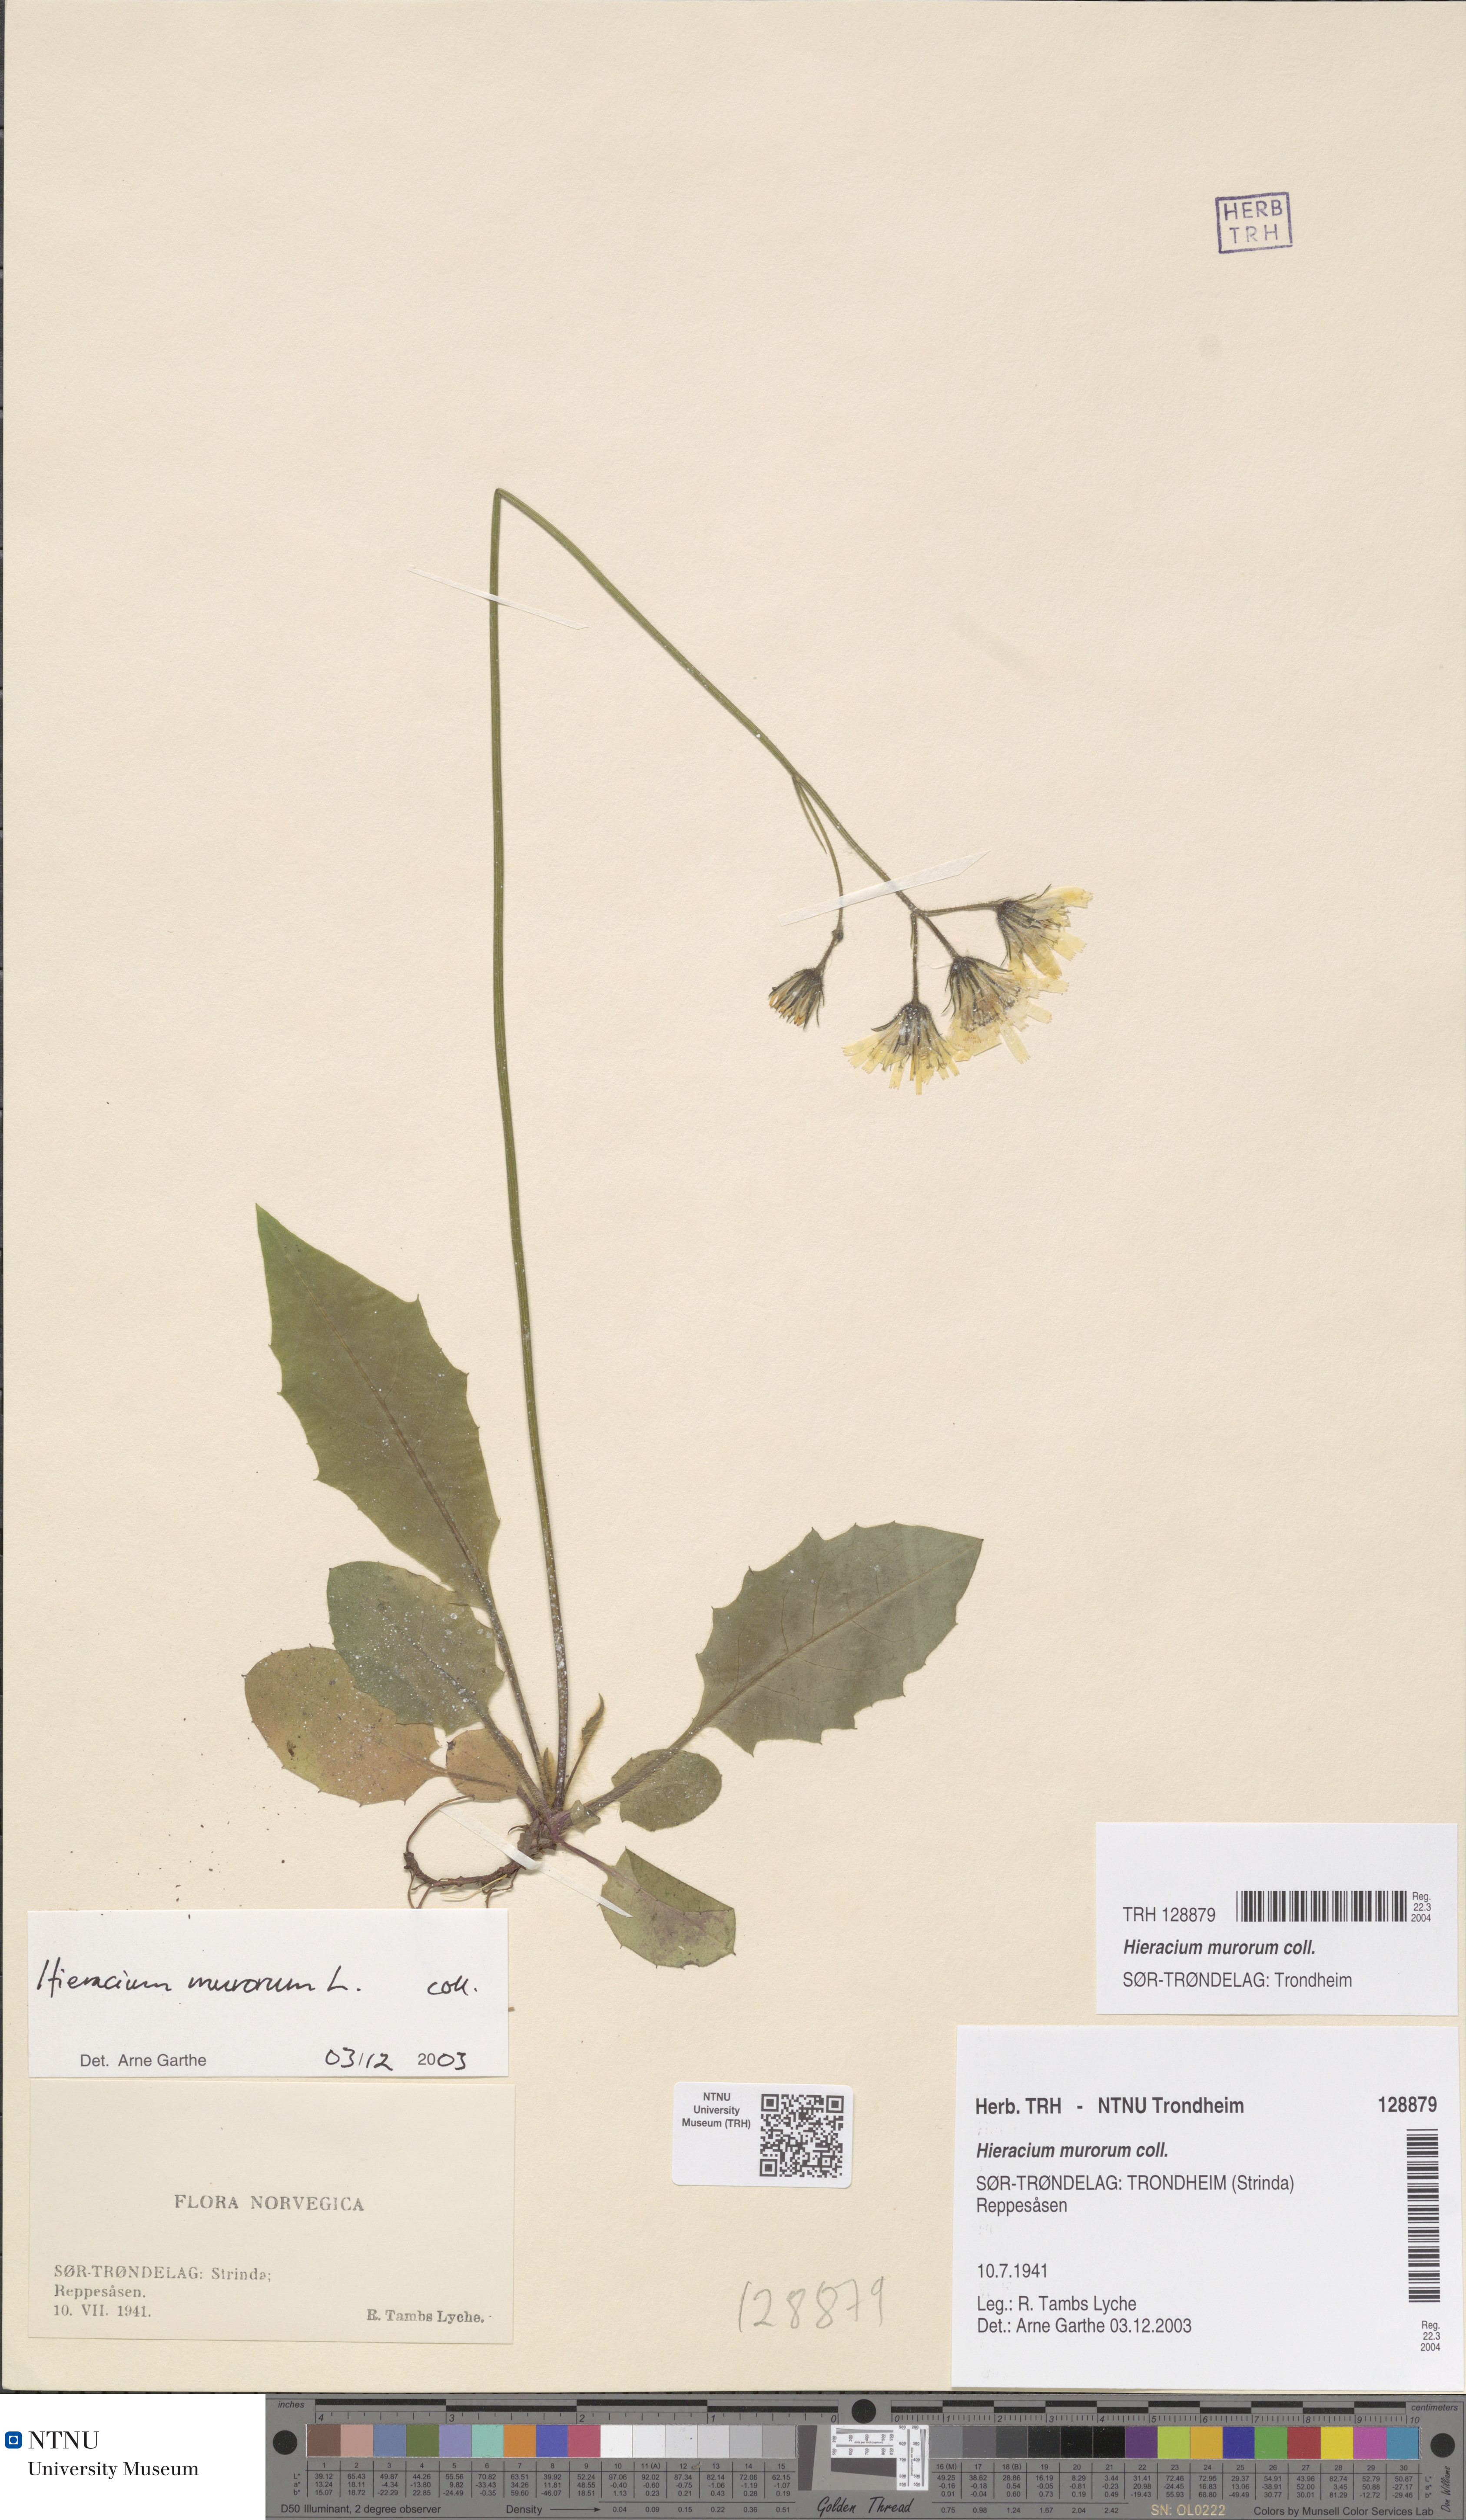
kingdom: Plantae
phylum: Tracheophyta
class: Magnoliopsida
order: Asterales
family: Asteraceae
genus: Hieracium
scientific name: Hieracium murorum
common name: Wall hawkweed
